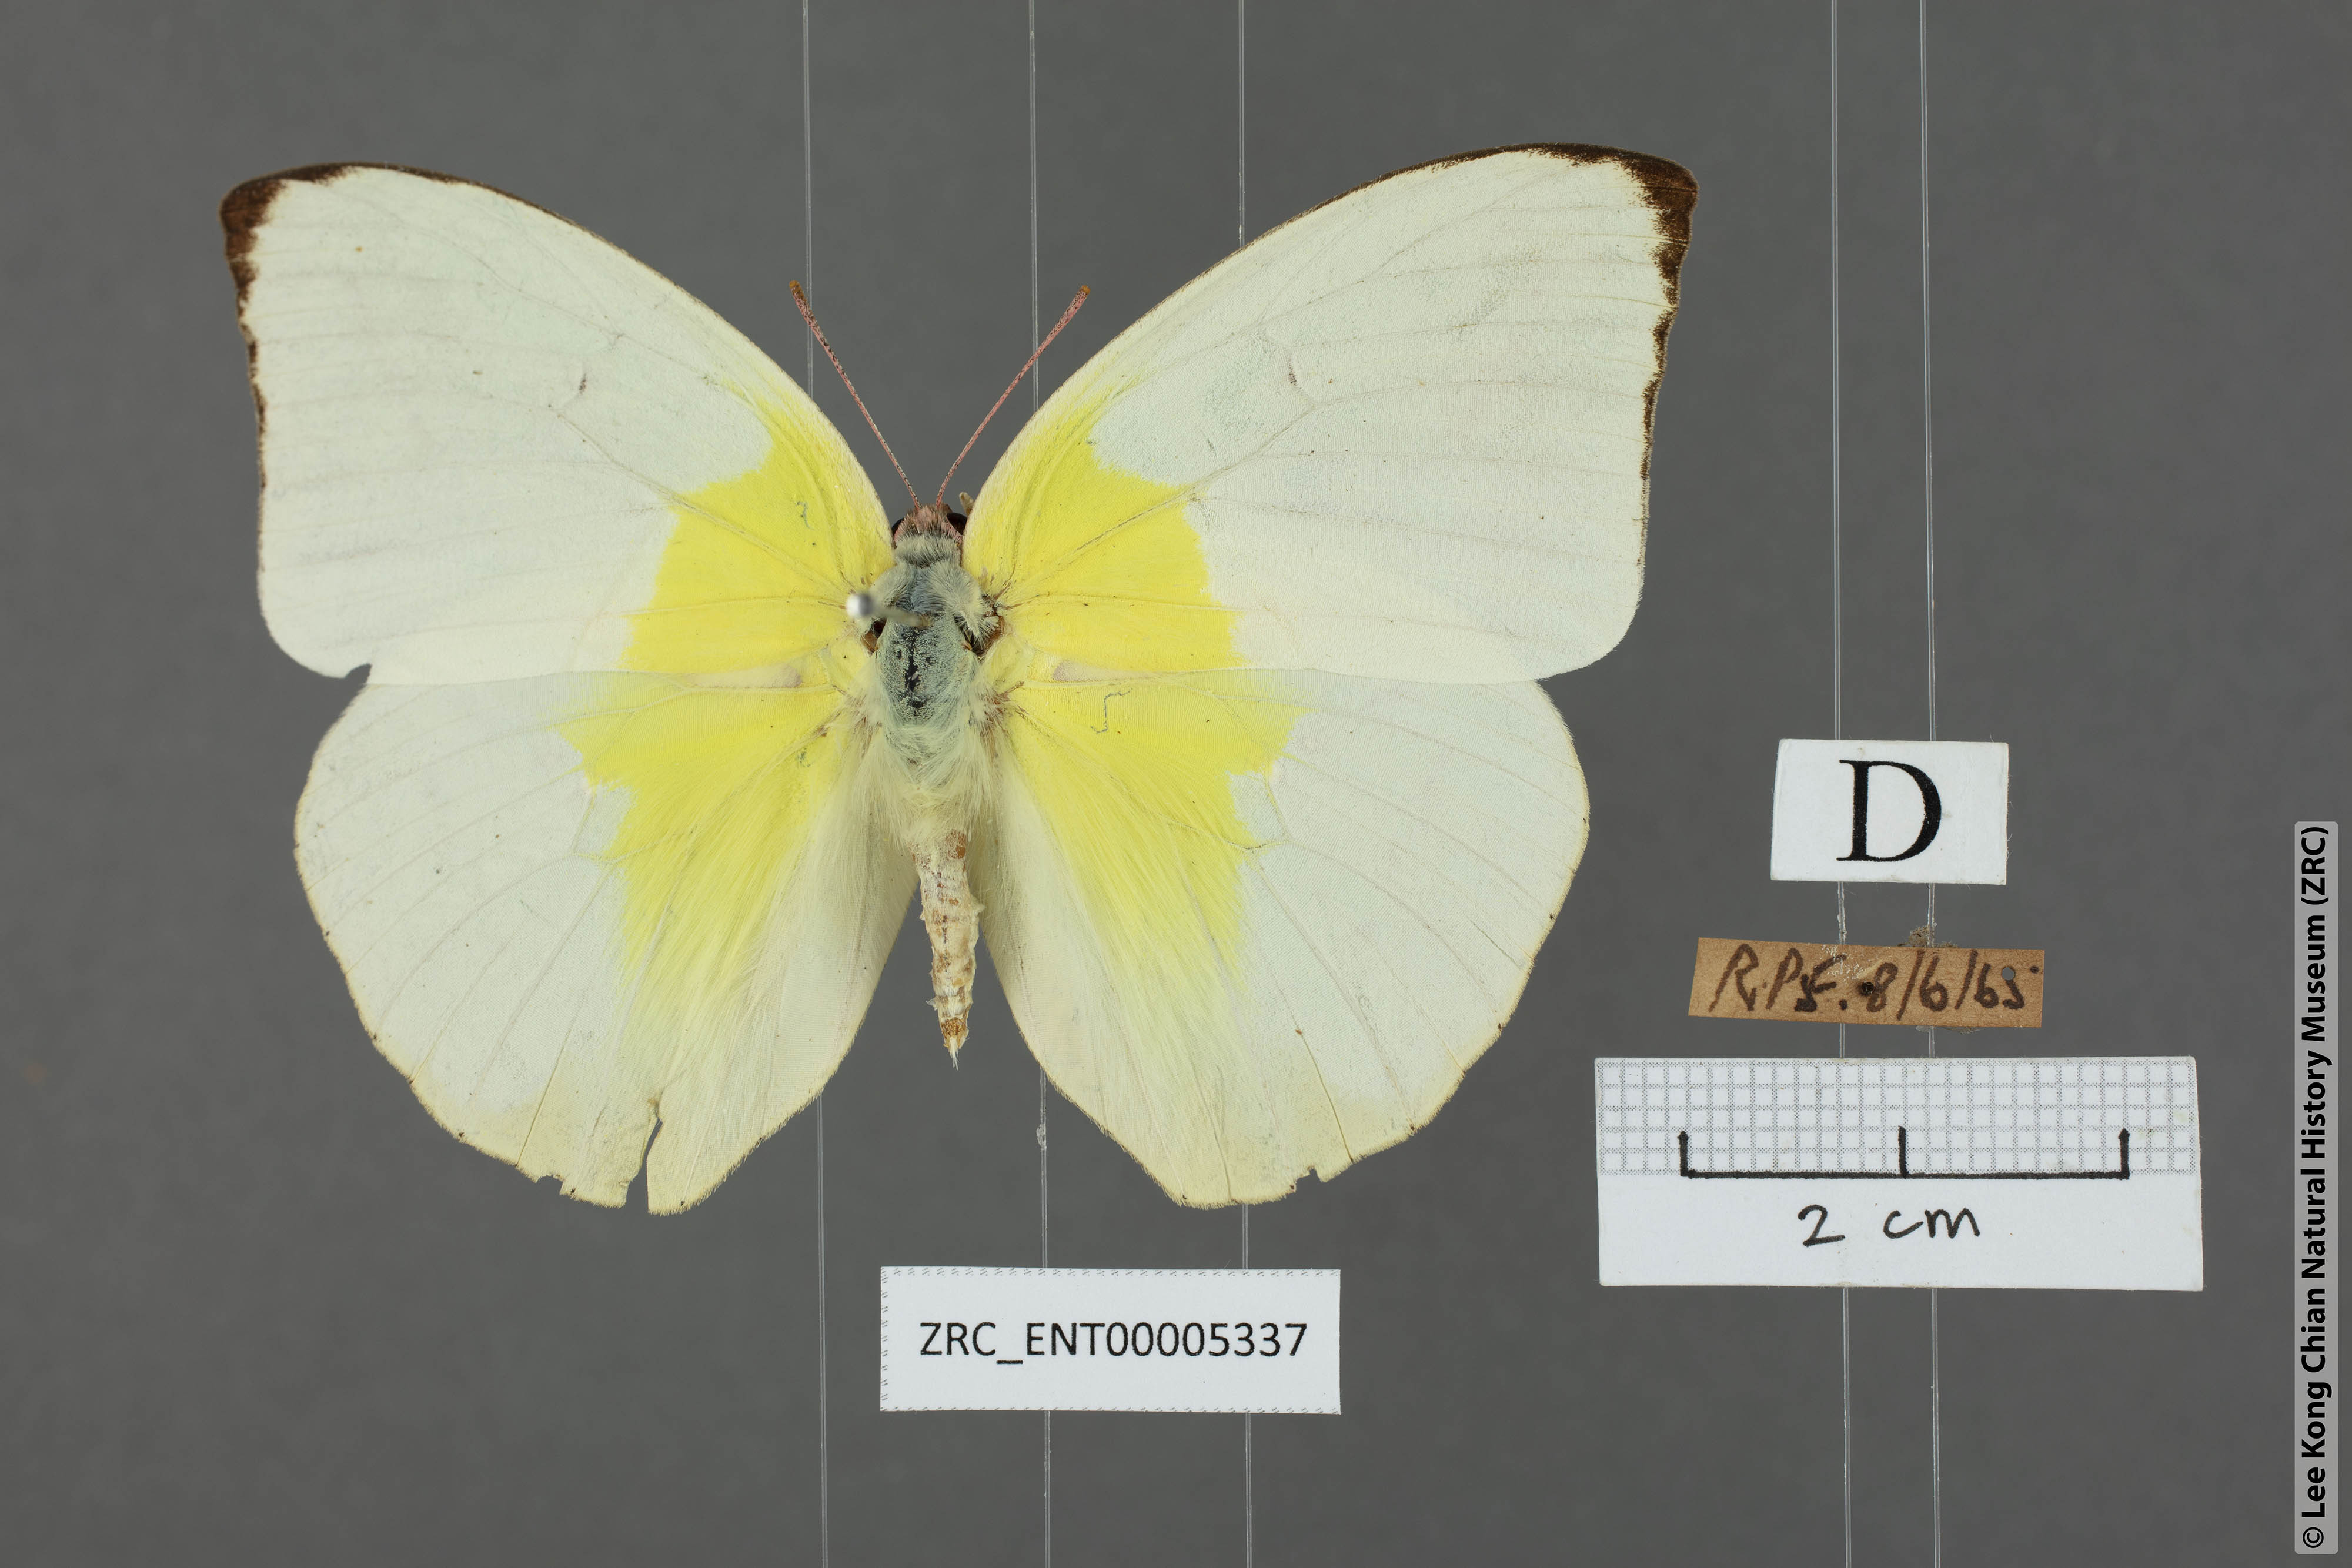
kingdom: Animalia
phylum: Arthropoda
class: Insecta
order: Lepidoptera
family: Pieridae
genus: Catopsilia
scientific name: Catopsilia pomona
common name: Common emigrant
